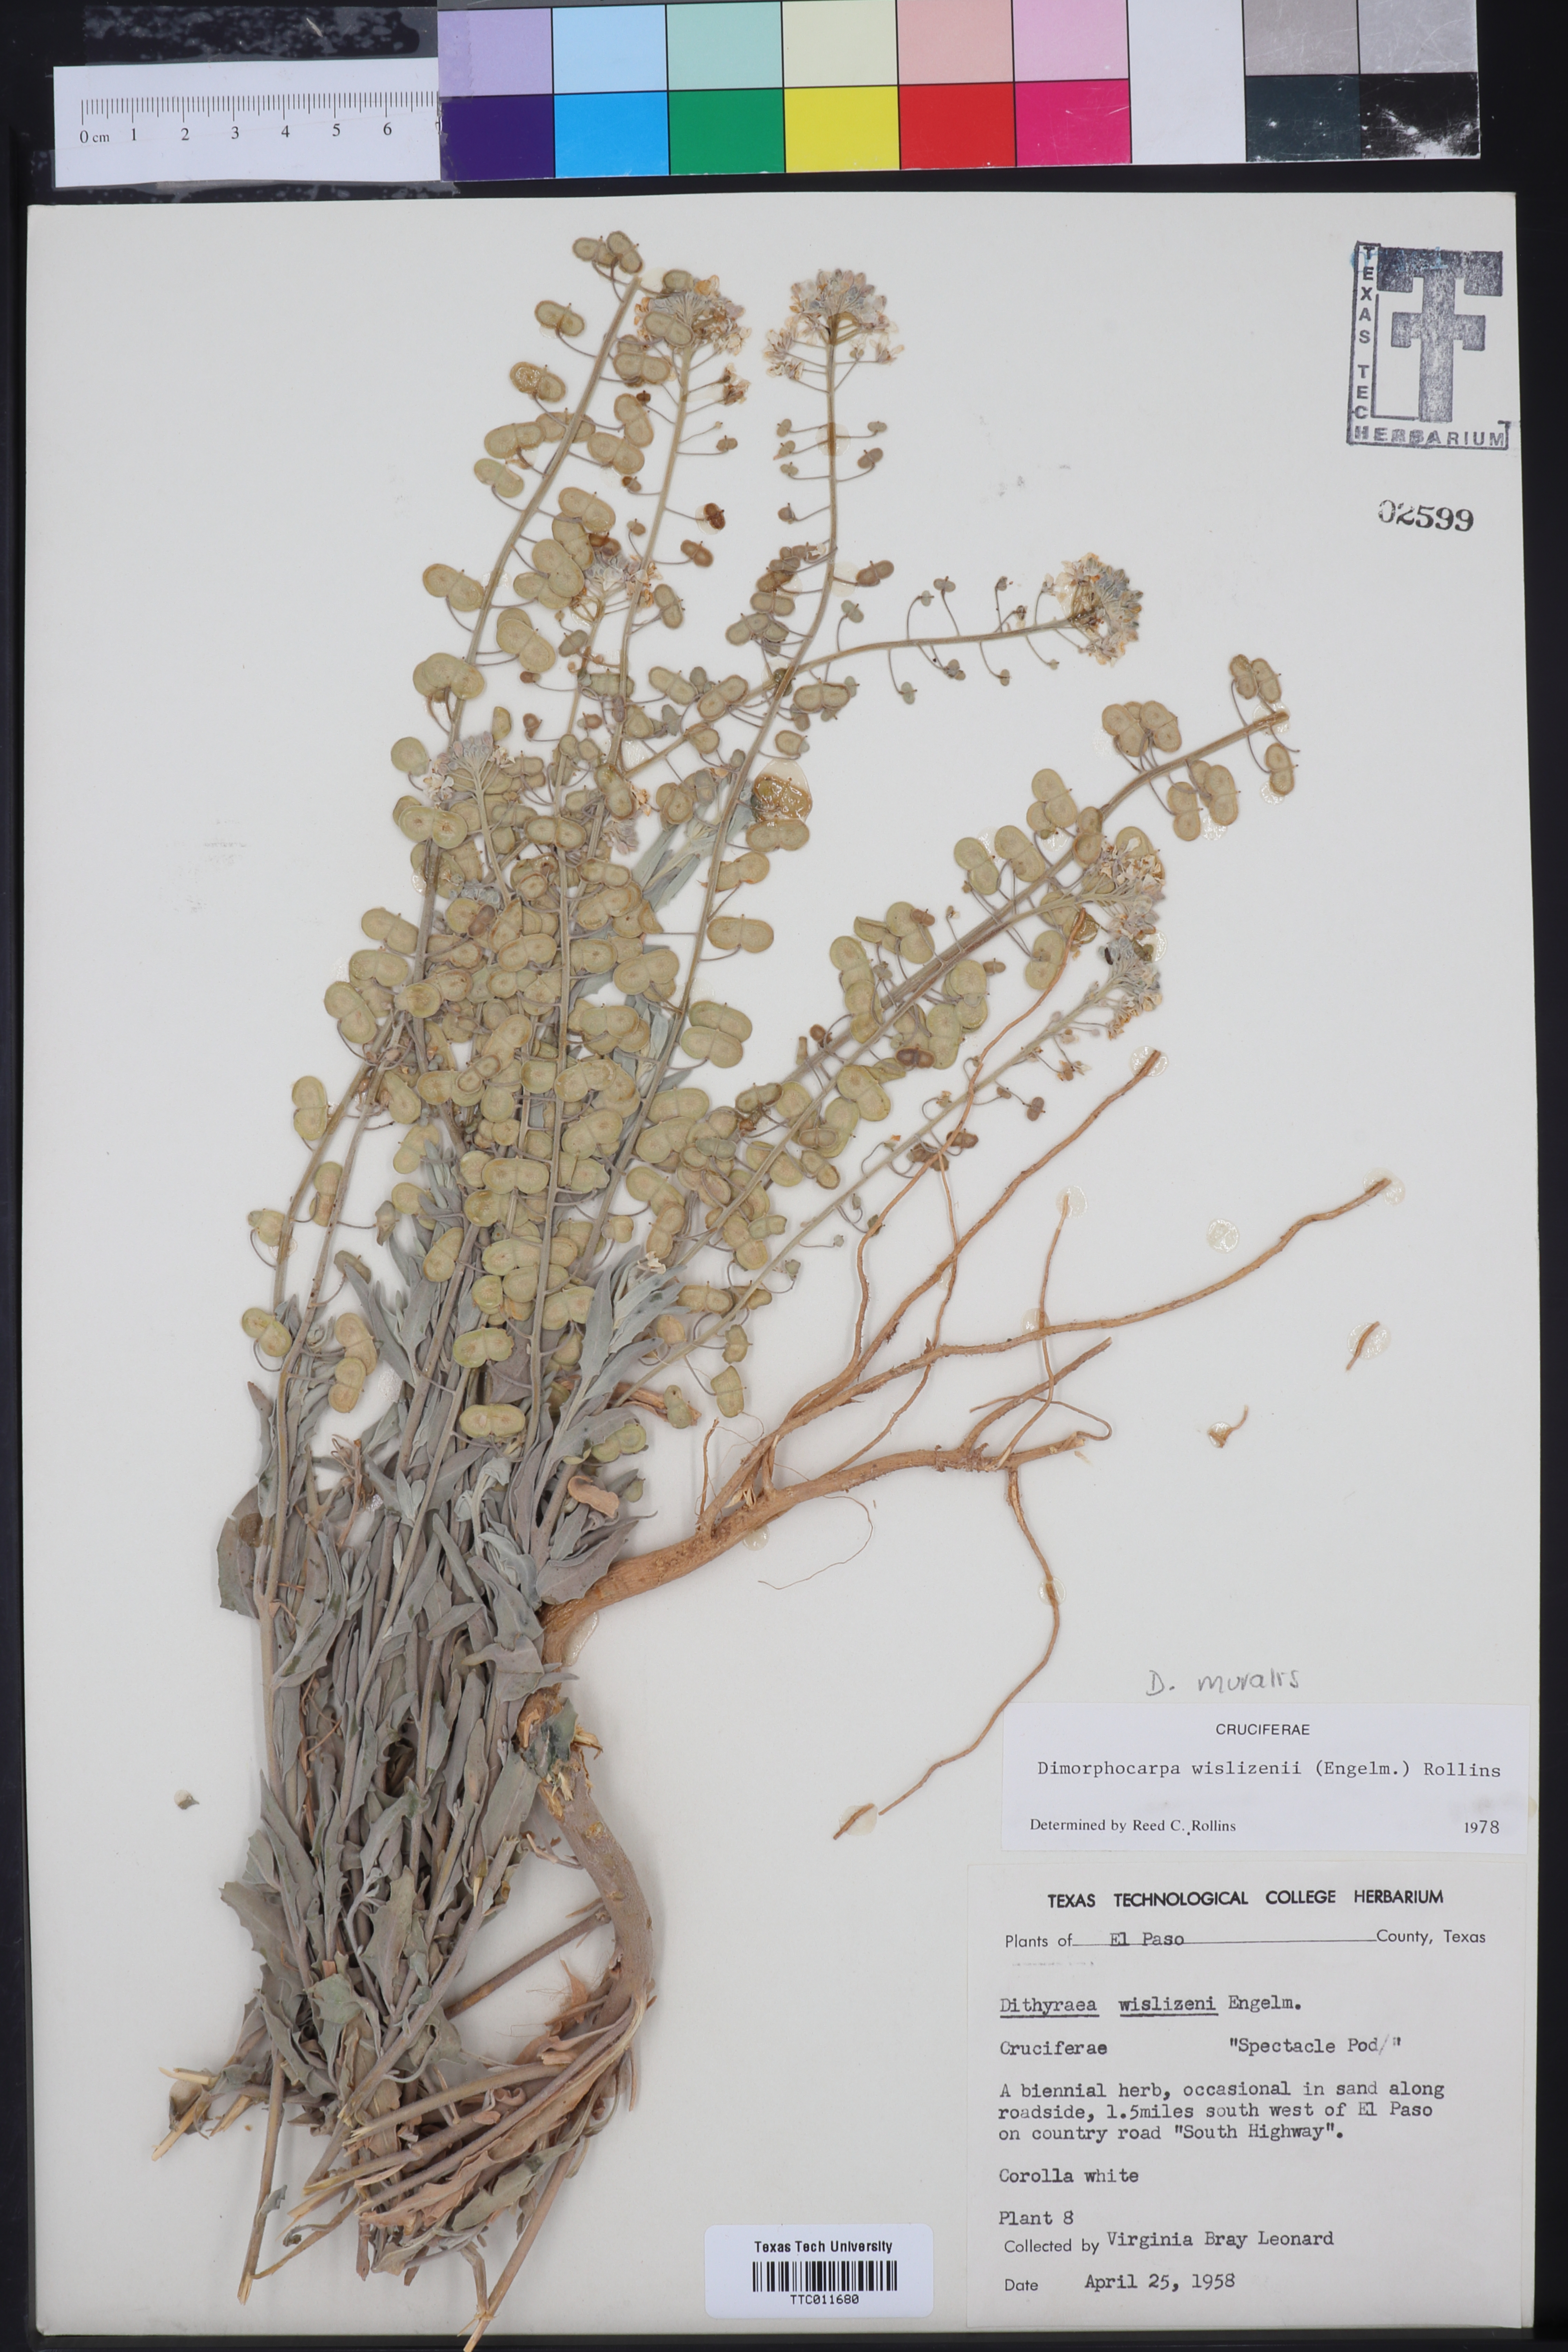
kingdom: Plantae
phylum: Tracheophyta
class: Magnoliopsida
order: Brassicales
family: Brassicaceae
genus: Dimorphocarpa
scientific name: Dimorphocarpa wislizenii
